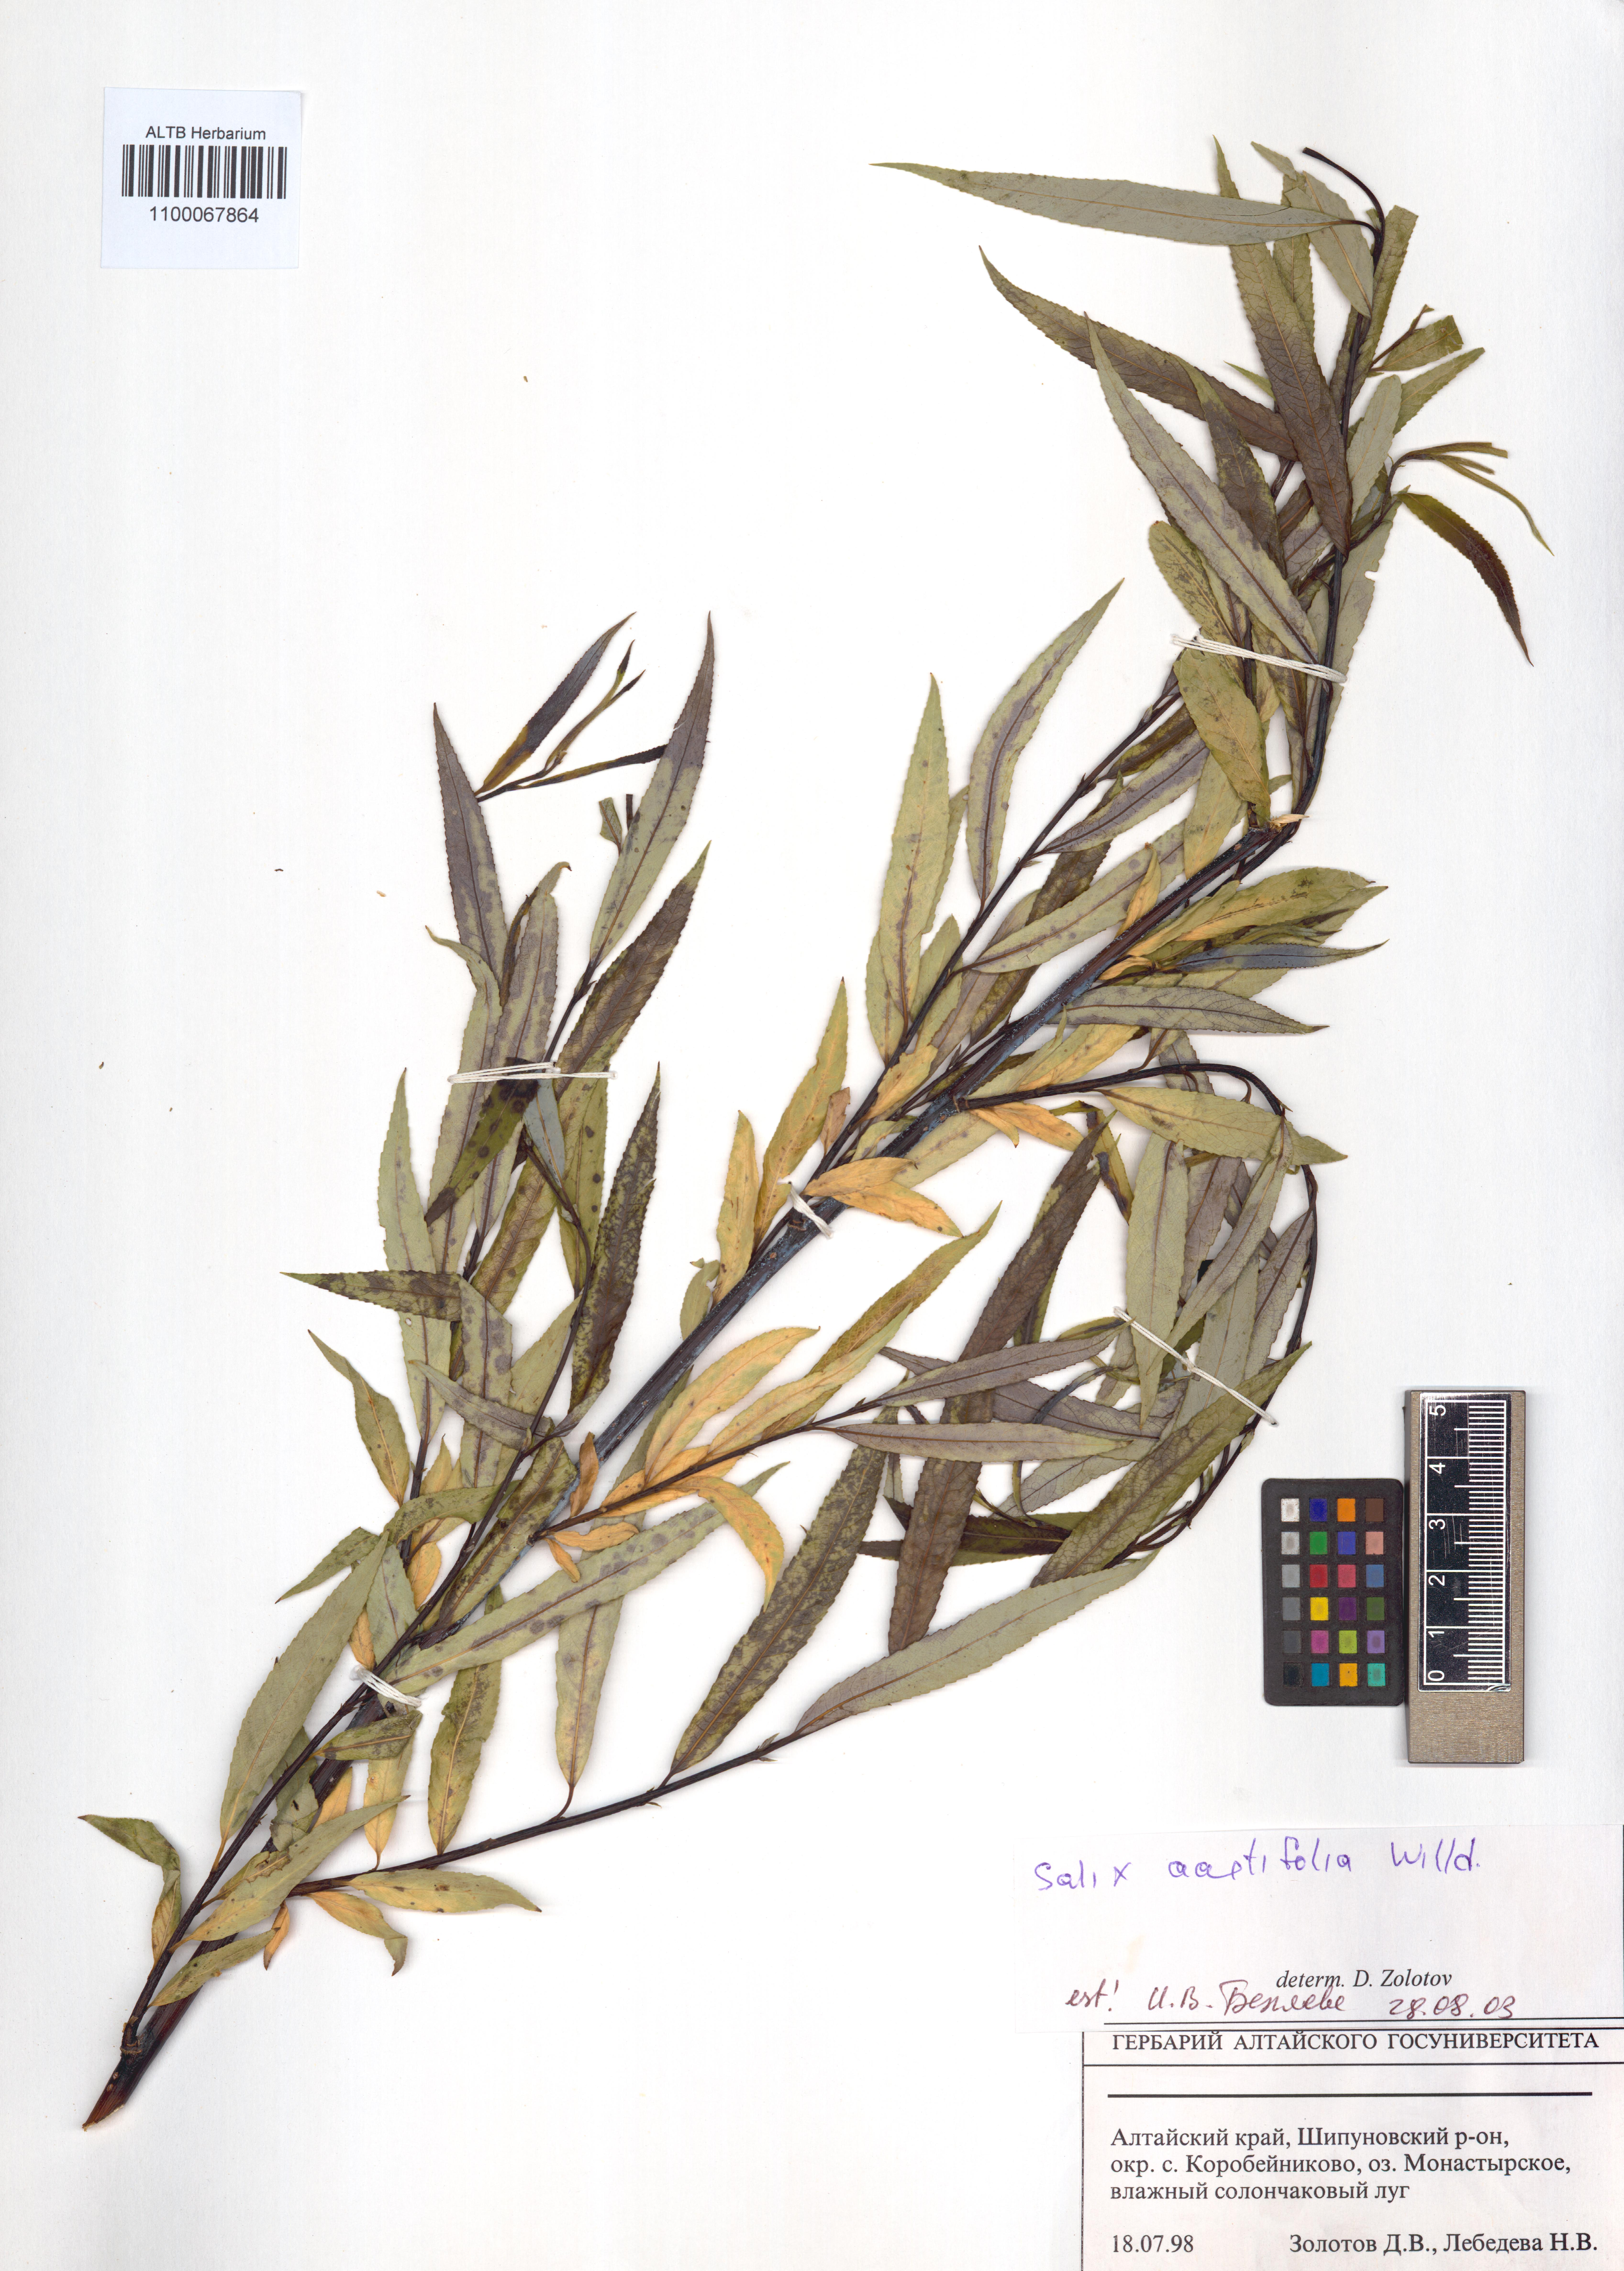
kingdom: Plantae
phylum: Tracheophyta
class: Magnoliopsida
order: Malpighiales
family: Salicaceae
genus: Salix
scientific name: Salix acutifolia
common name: Siberian violet-willow
